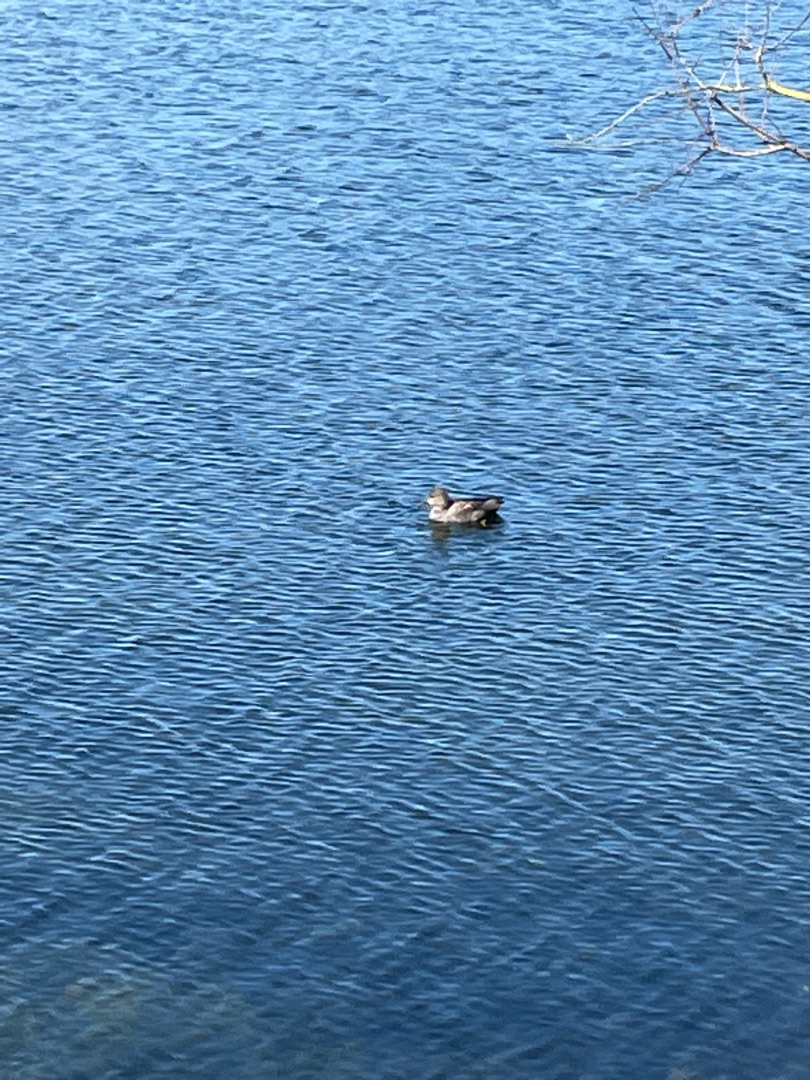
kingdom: Animalia
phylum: Chordata
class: Aves
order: Anseriformes
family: Anatidae
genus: Mareca
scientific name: Mareca strepera
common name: Knarand
